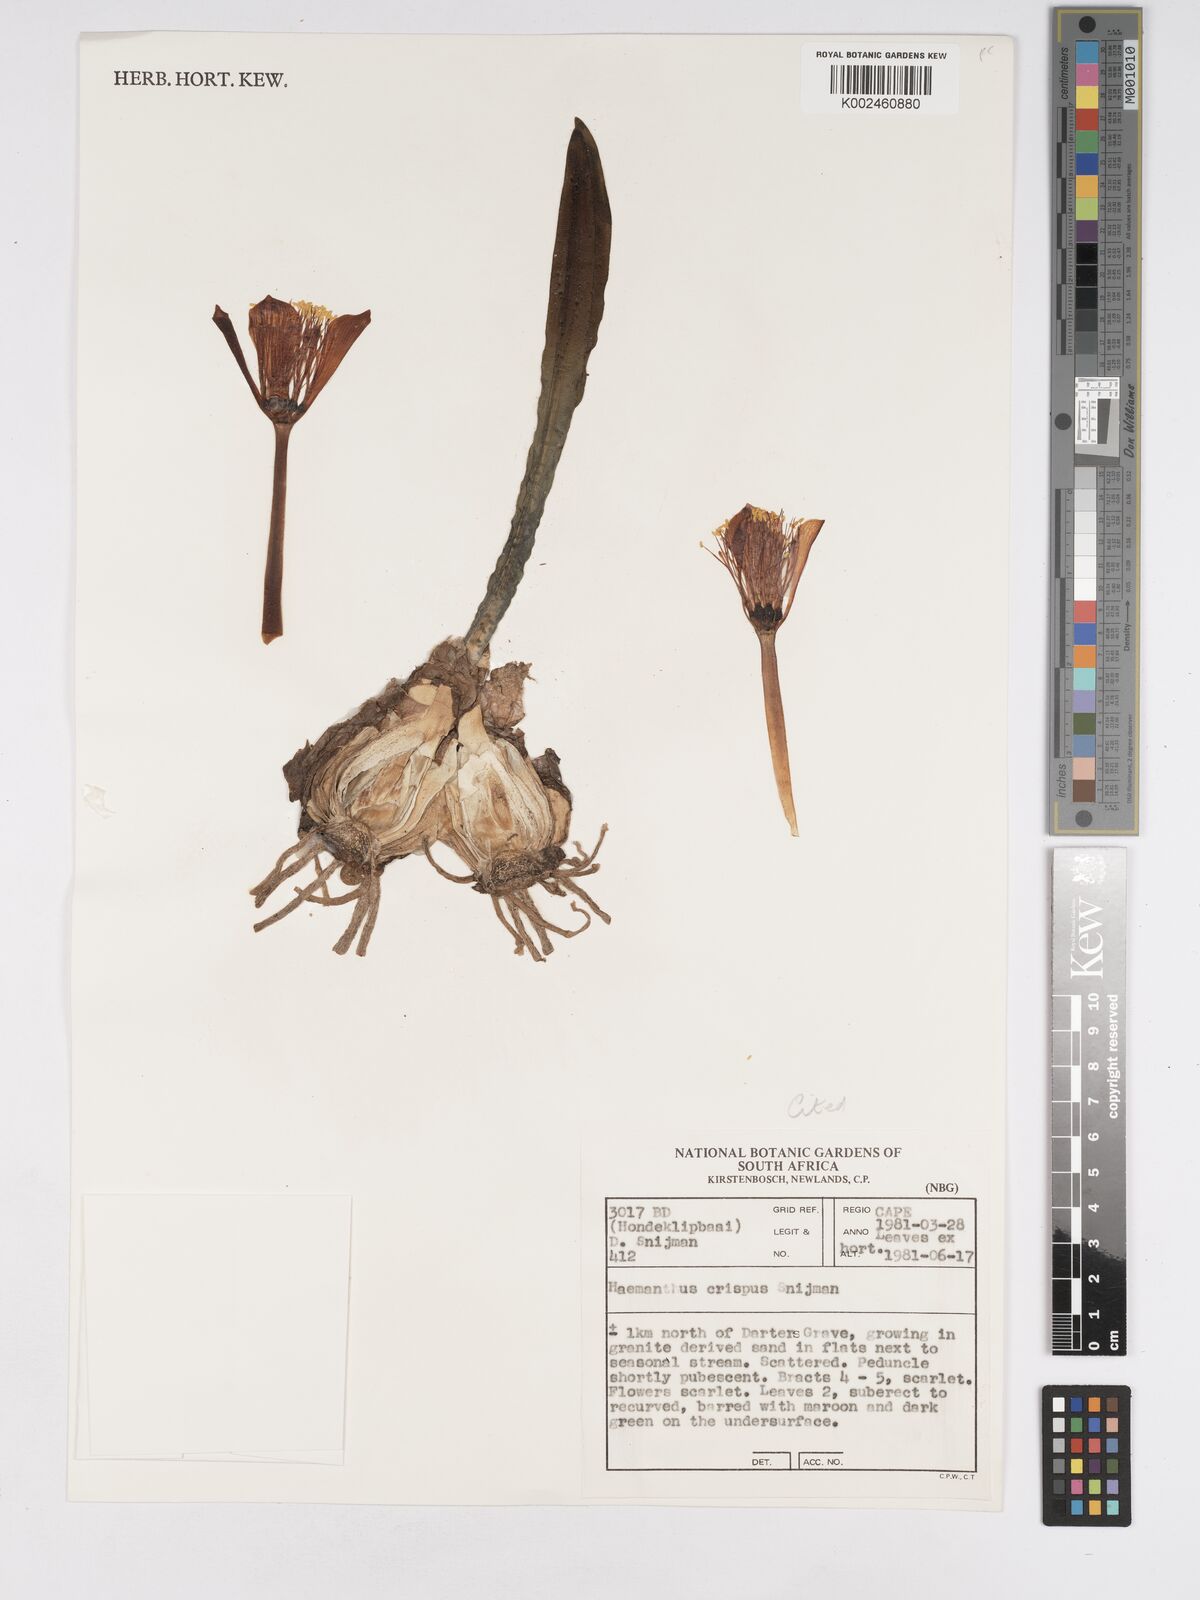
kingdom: Plantae
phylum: Tracheophyta
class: Liliopsida
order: Asparagales
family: Amaryllidaceae
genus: Haemanthus
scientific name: Haemanthus crispus
